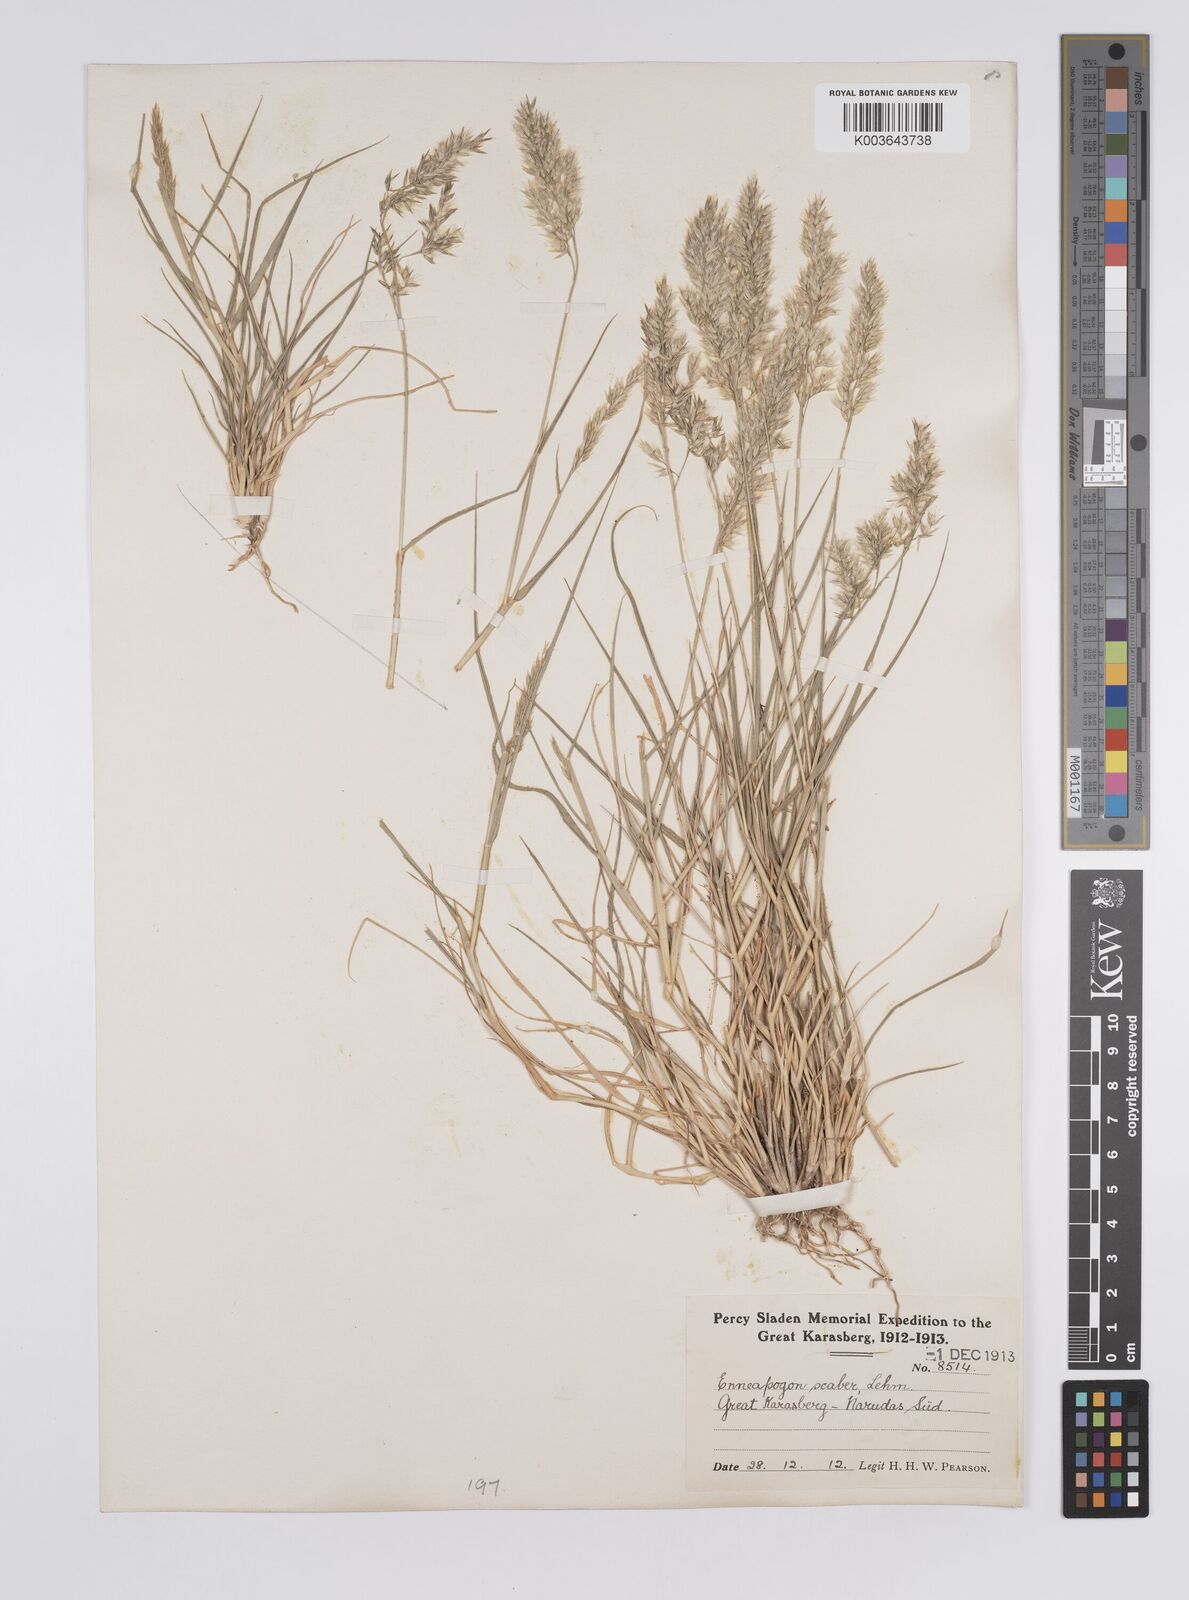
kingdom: Plantae
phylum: Tracheophyta
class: Liliopsida
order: Poales
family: Poaceae
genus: Enneapogon
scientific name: Enneapogon scaber
